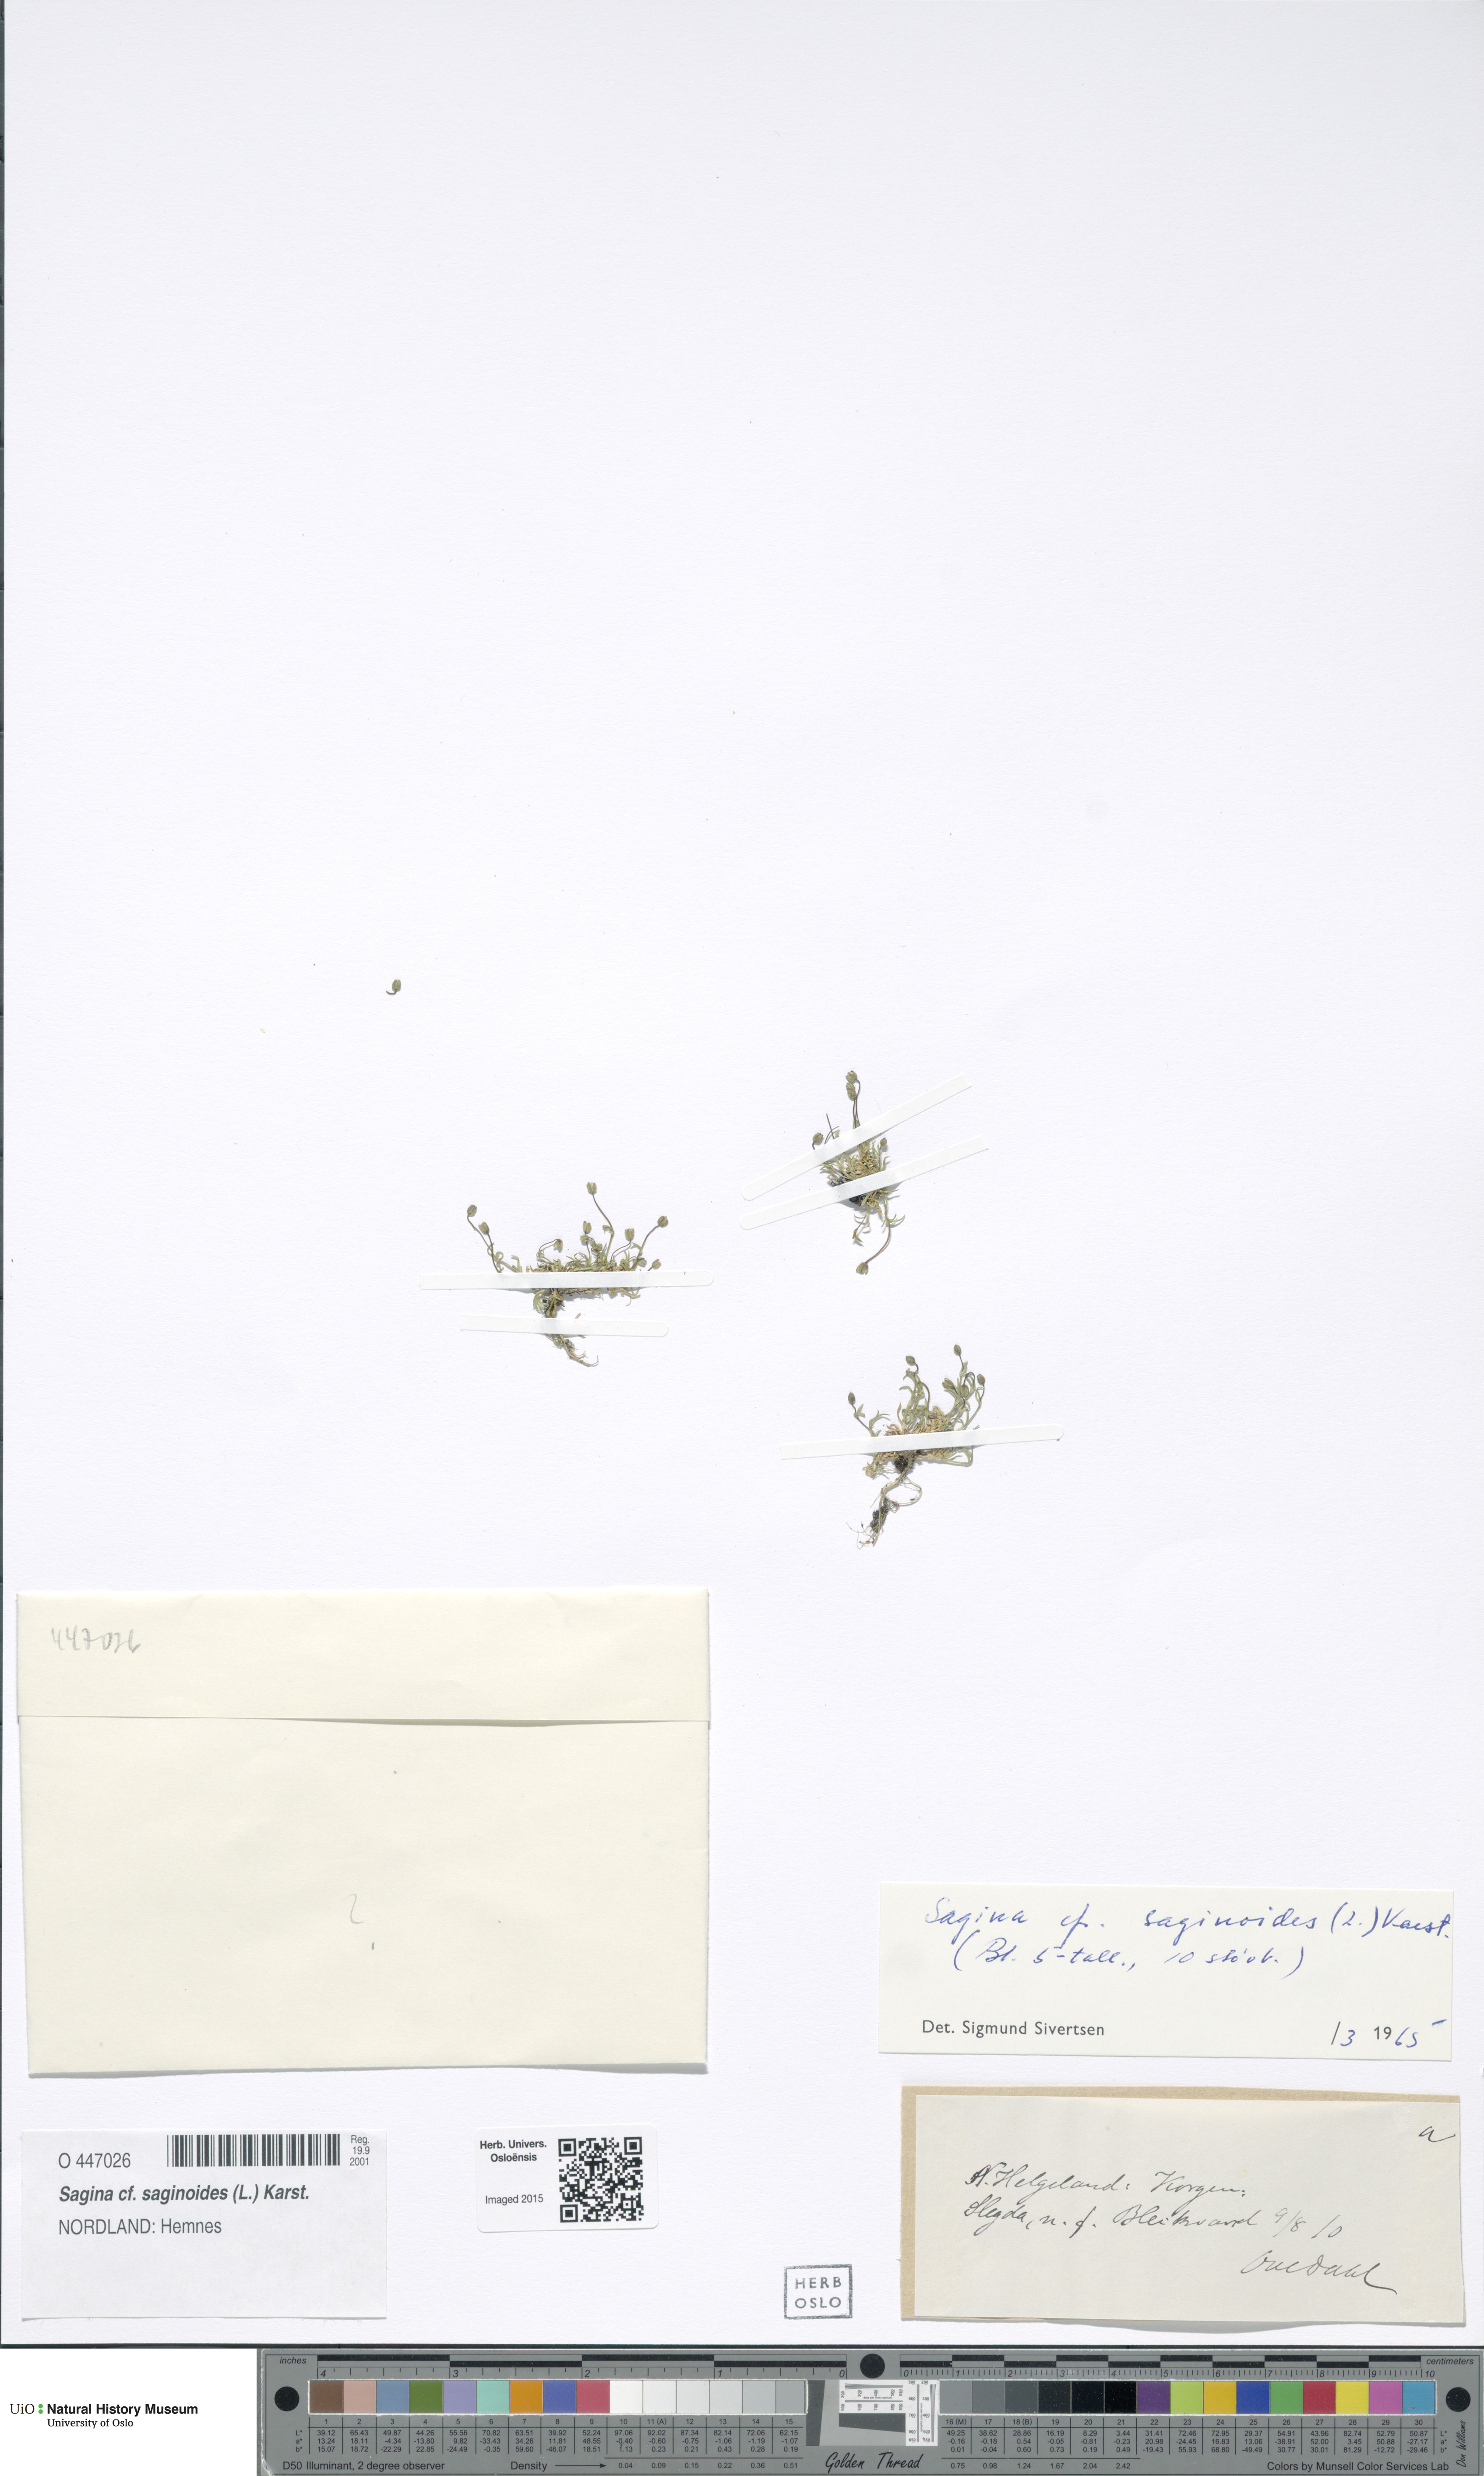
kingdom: Plantae
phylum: Tracheophyta
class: Magnoliopsida
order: Caryophyllales
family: Caryophyllaceae
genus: Sagina
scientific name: Sagina saginoides
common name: Alpine pearlwort
